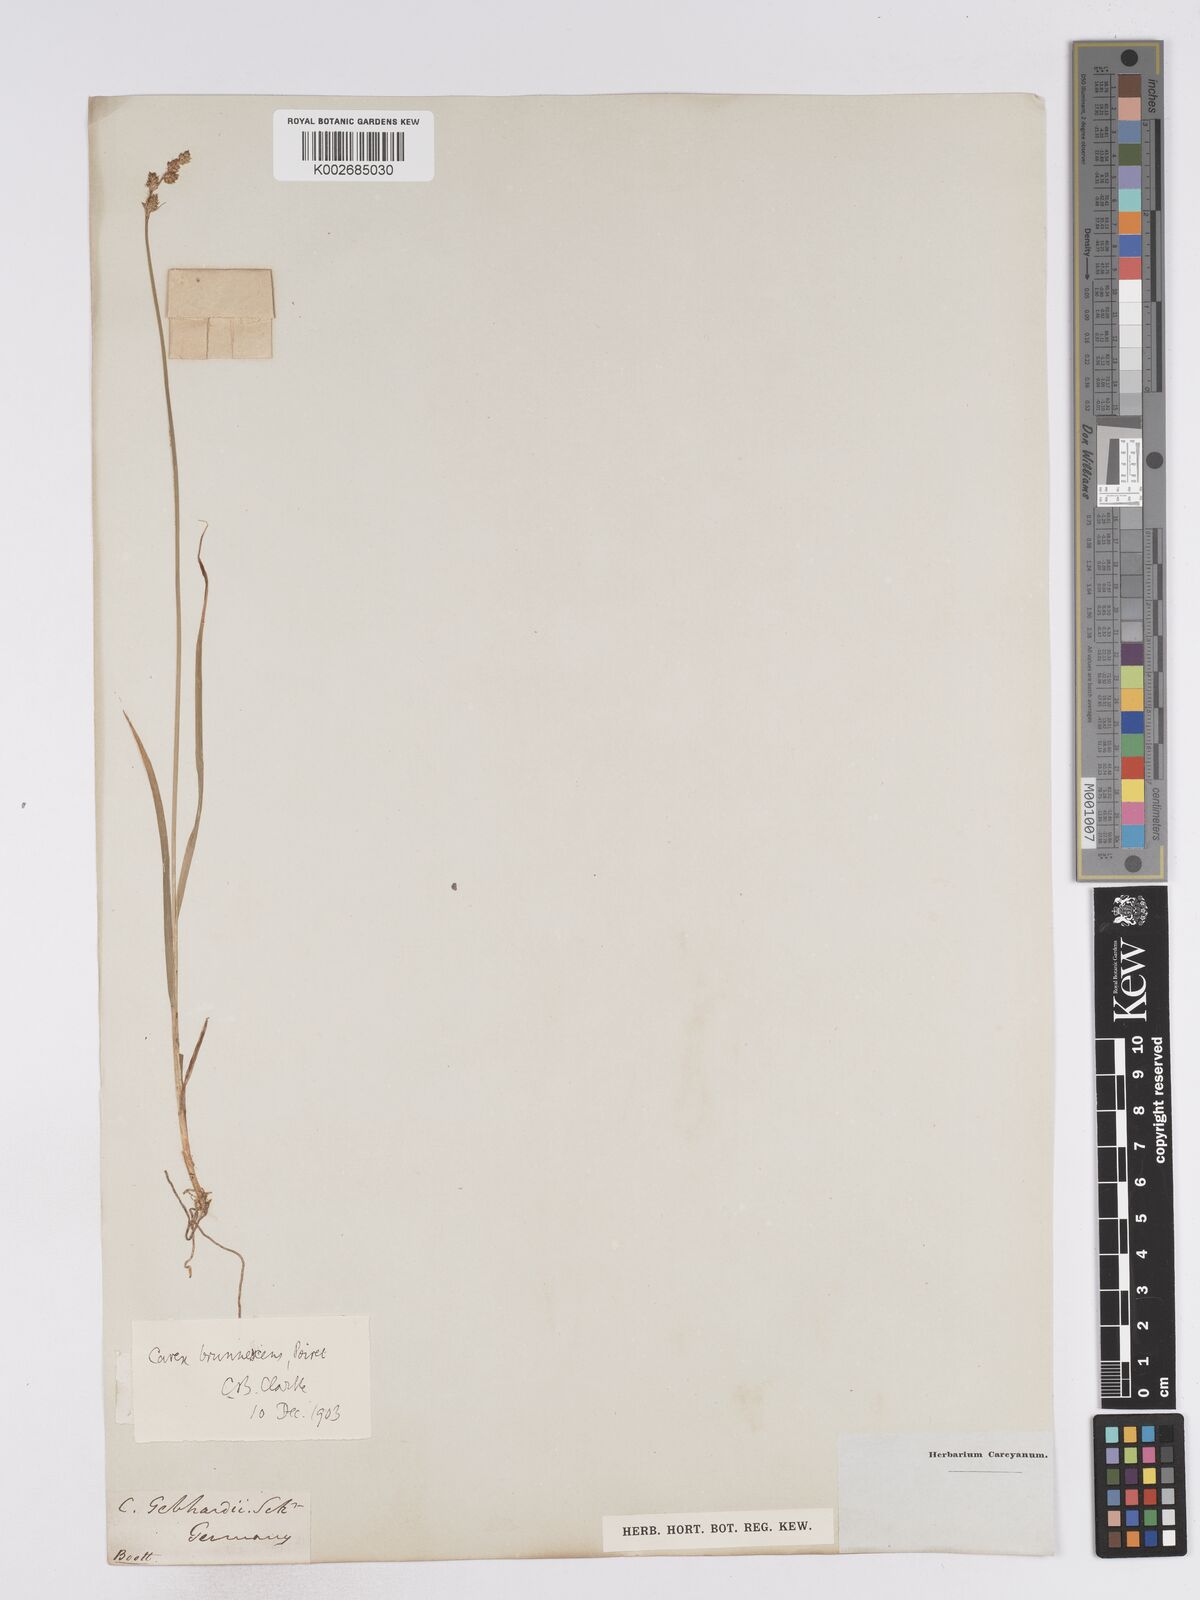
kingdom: Plantae
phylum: Tracheophyta
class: Liliopsida
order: Poales
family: Cyperaceae
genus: Carex
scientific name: Carex brunnescens
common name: Brown sedge
